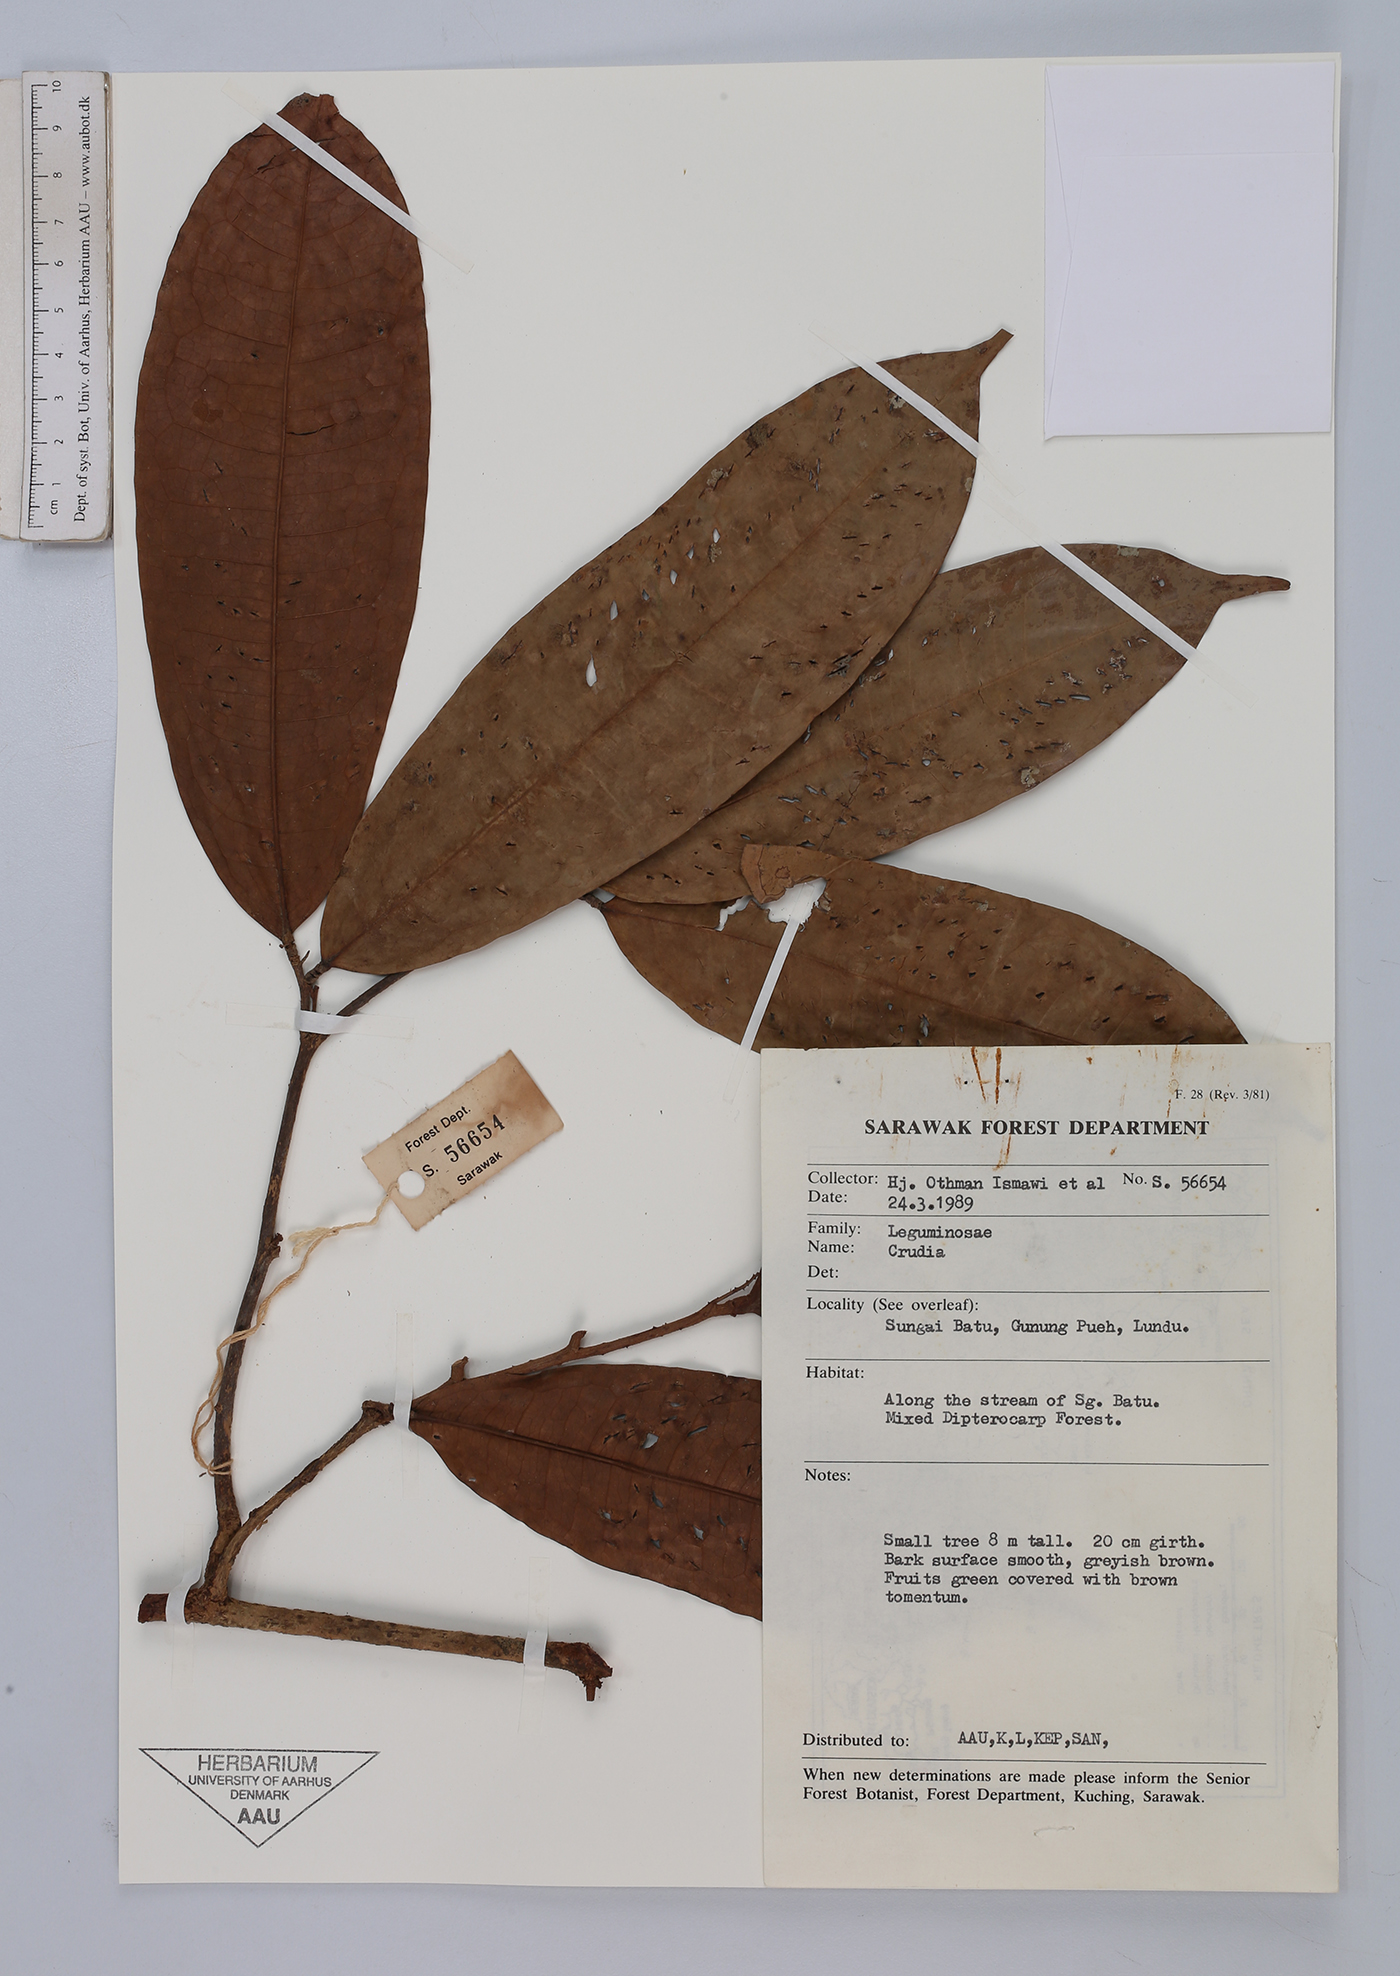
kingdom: Plantae
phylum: Tracheophyta
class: Magnoliopsida
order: Fabales
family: Fabaceae
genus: Crudia
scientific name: Crudia
